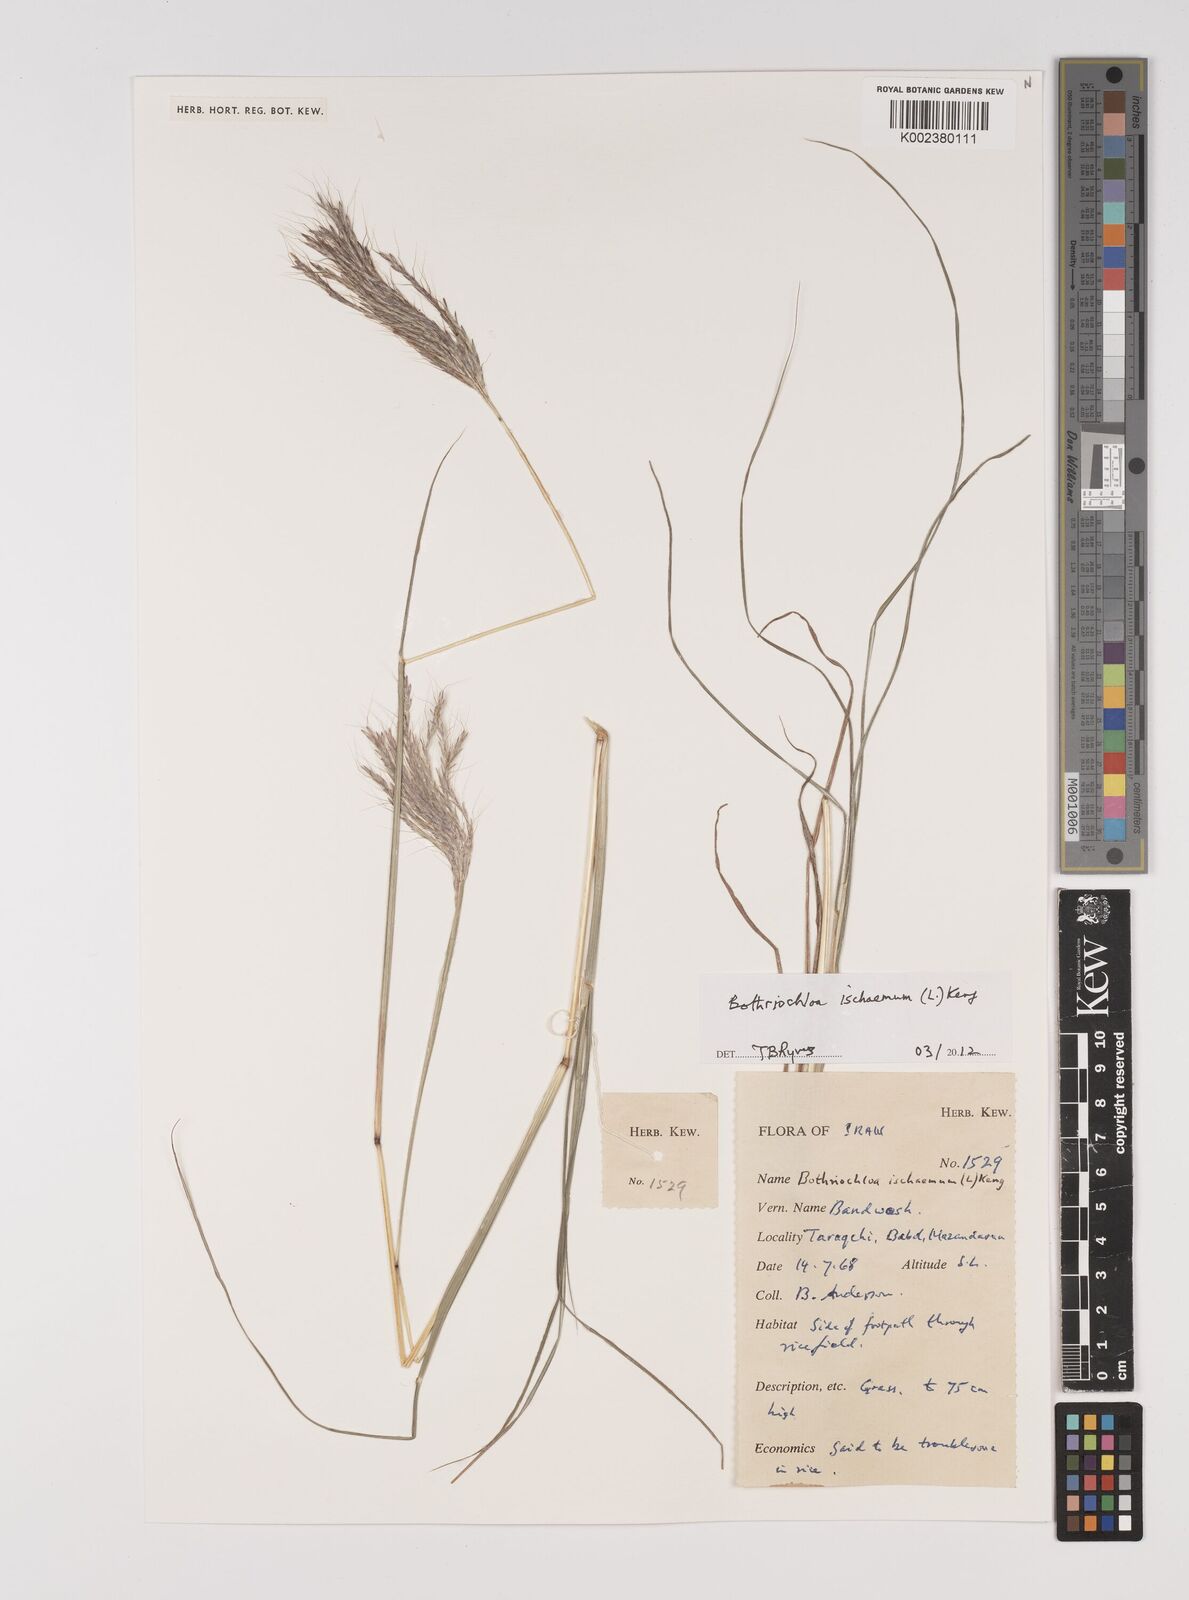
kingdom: Plantae
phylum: Tracheophyta
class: Liliopsida
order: Poales
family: Poaceae
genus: Bothriochloa
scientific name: Bothriochloa ischaemum
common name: Yellow bluestem
